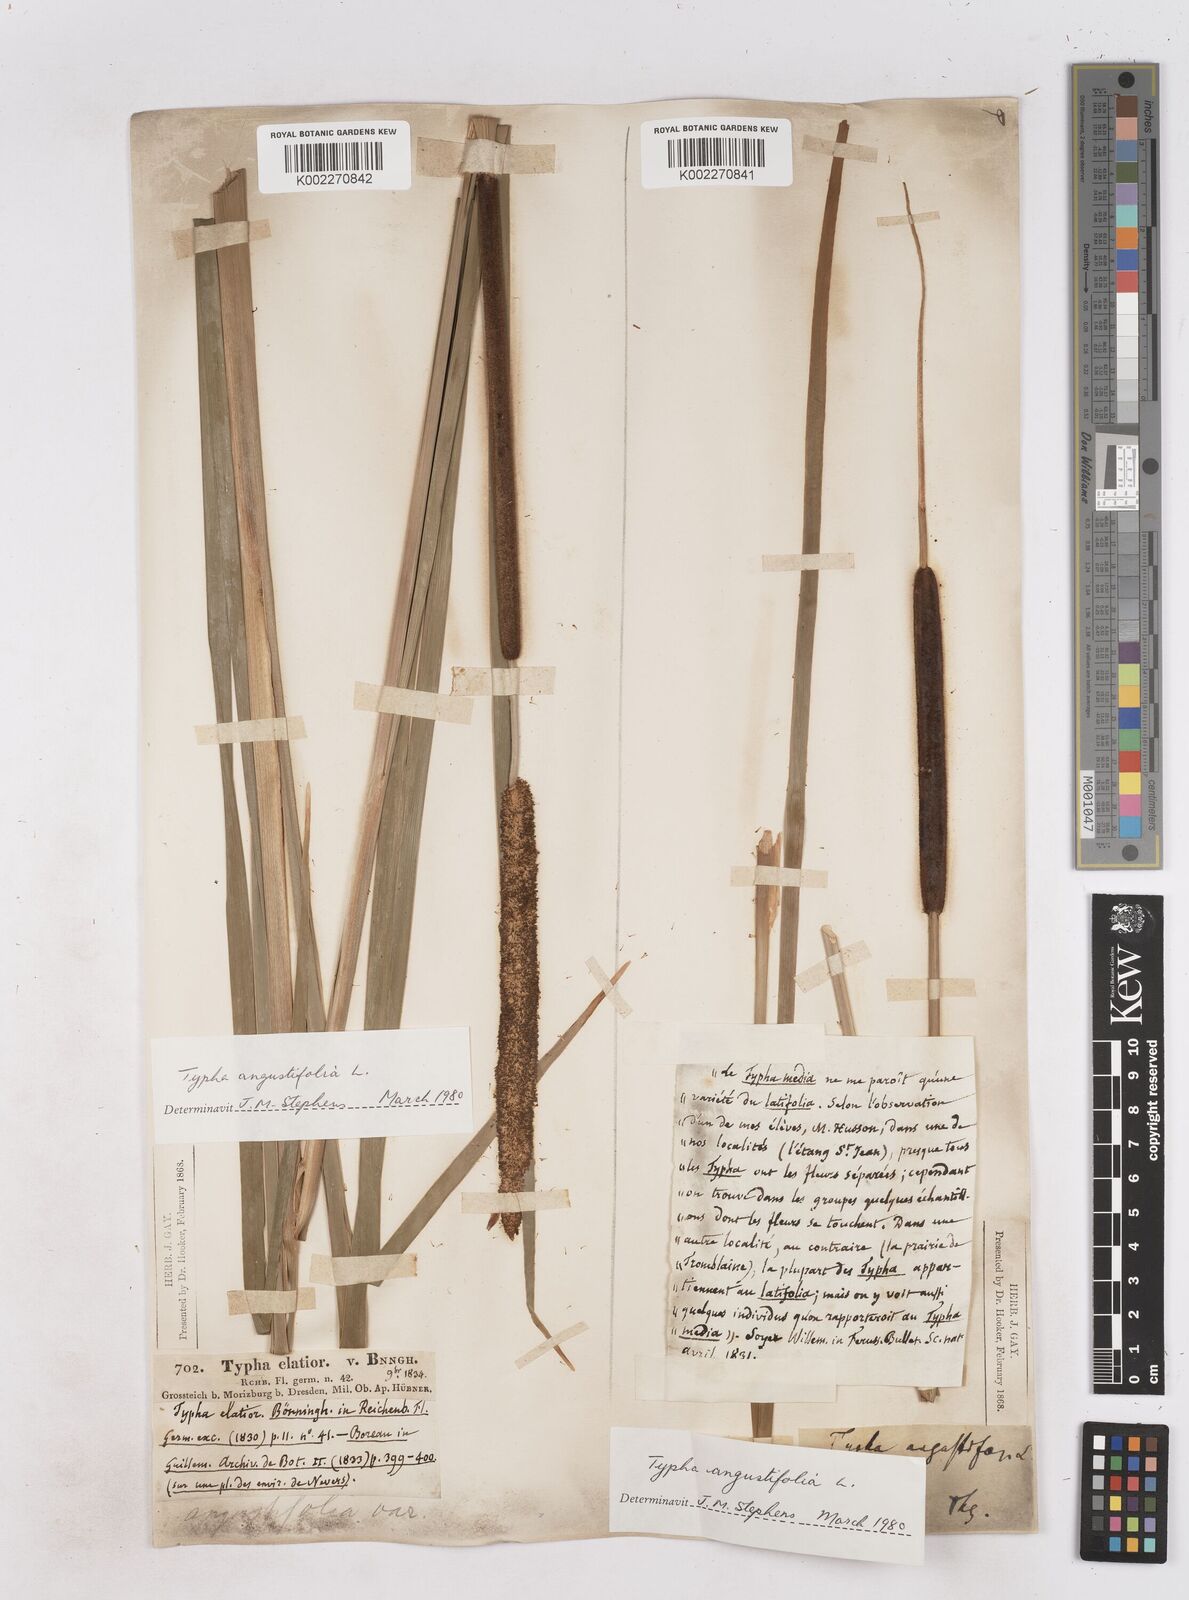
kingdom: Plantae
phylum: Tracheophyta
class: Liliopsida
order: Poales
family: Typhaceae
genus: Typha
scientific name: Typha angustifolia
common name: Lesser bulrush
